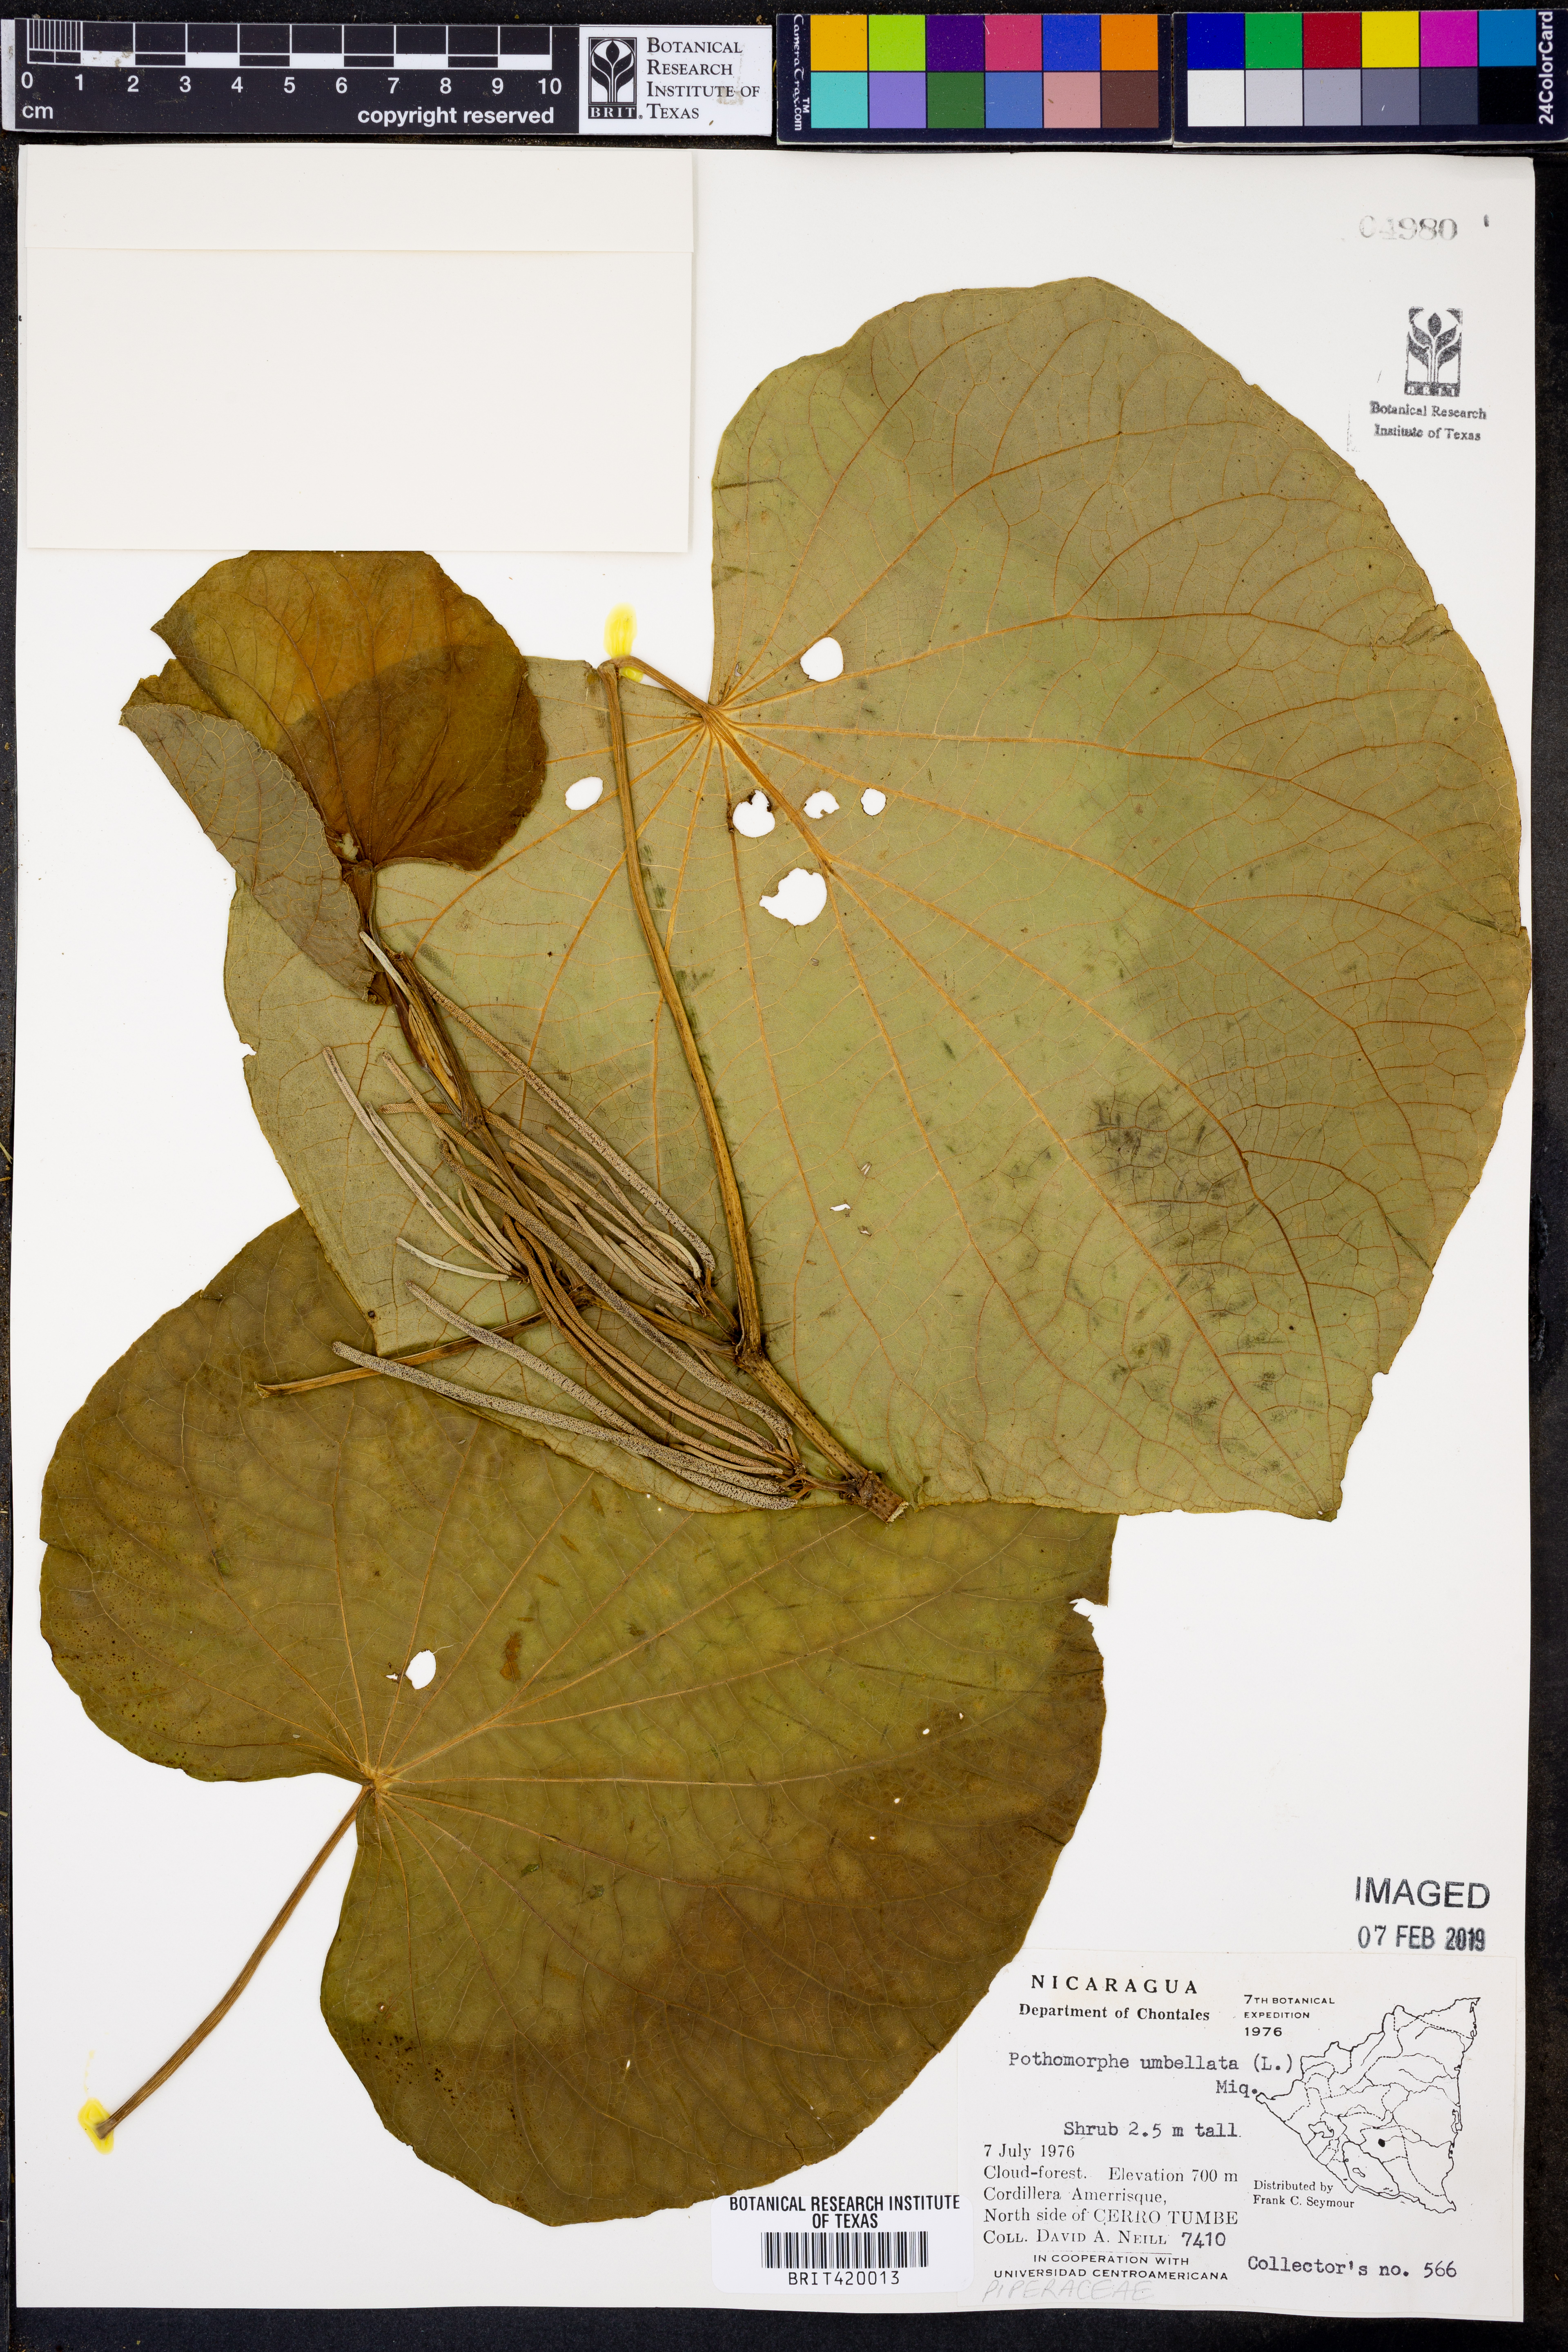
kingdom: Plantae
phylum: Tracheophyta
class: Magnoliopsida
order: Piperales
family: Piperaceae
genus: Piper
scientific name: Piper umbellatum
